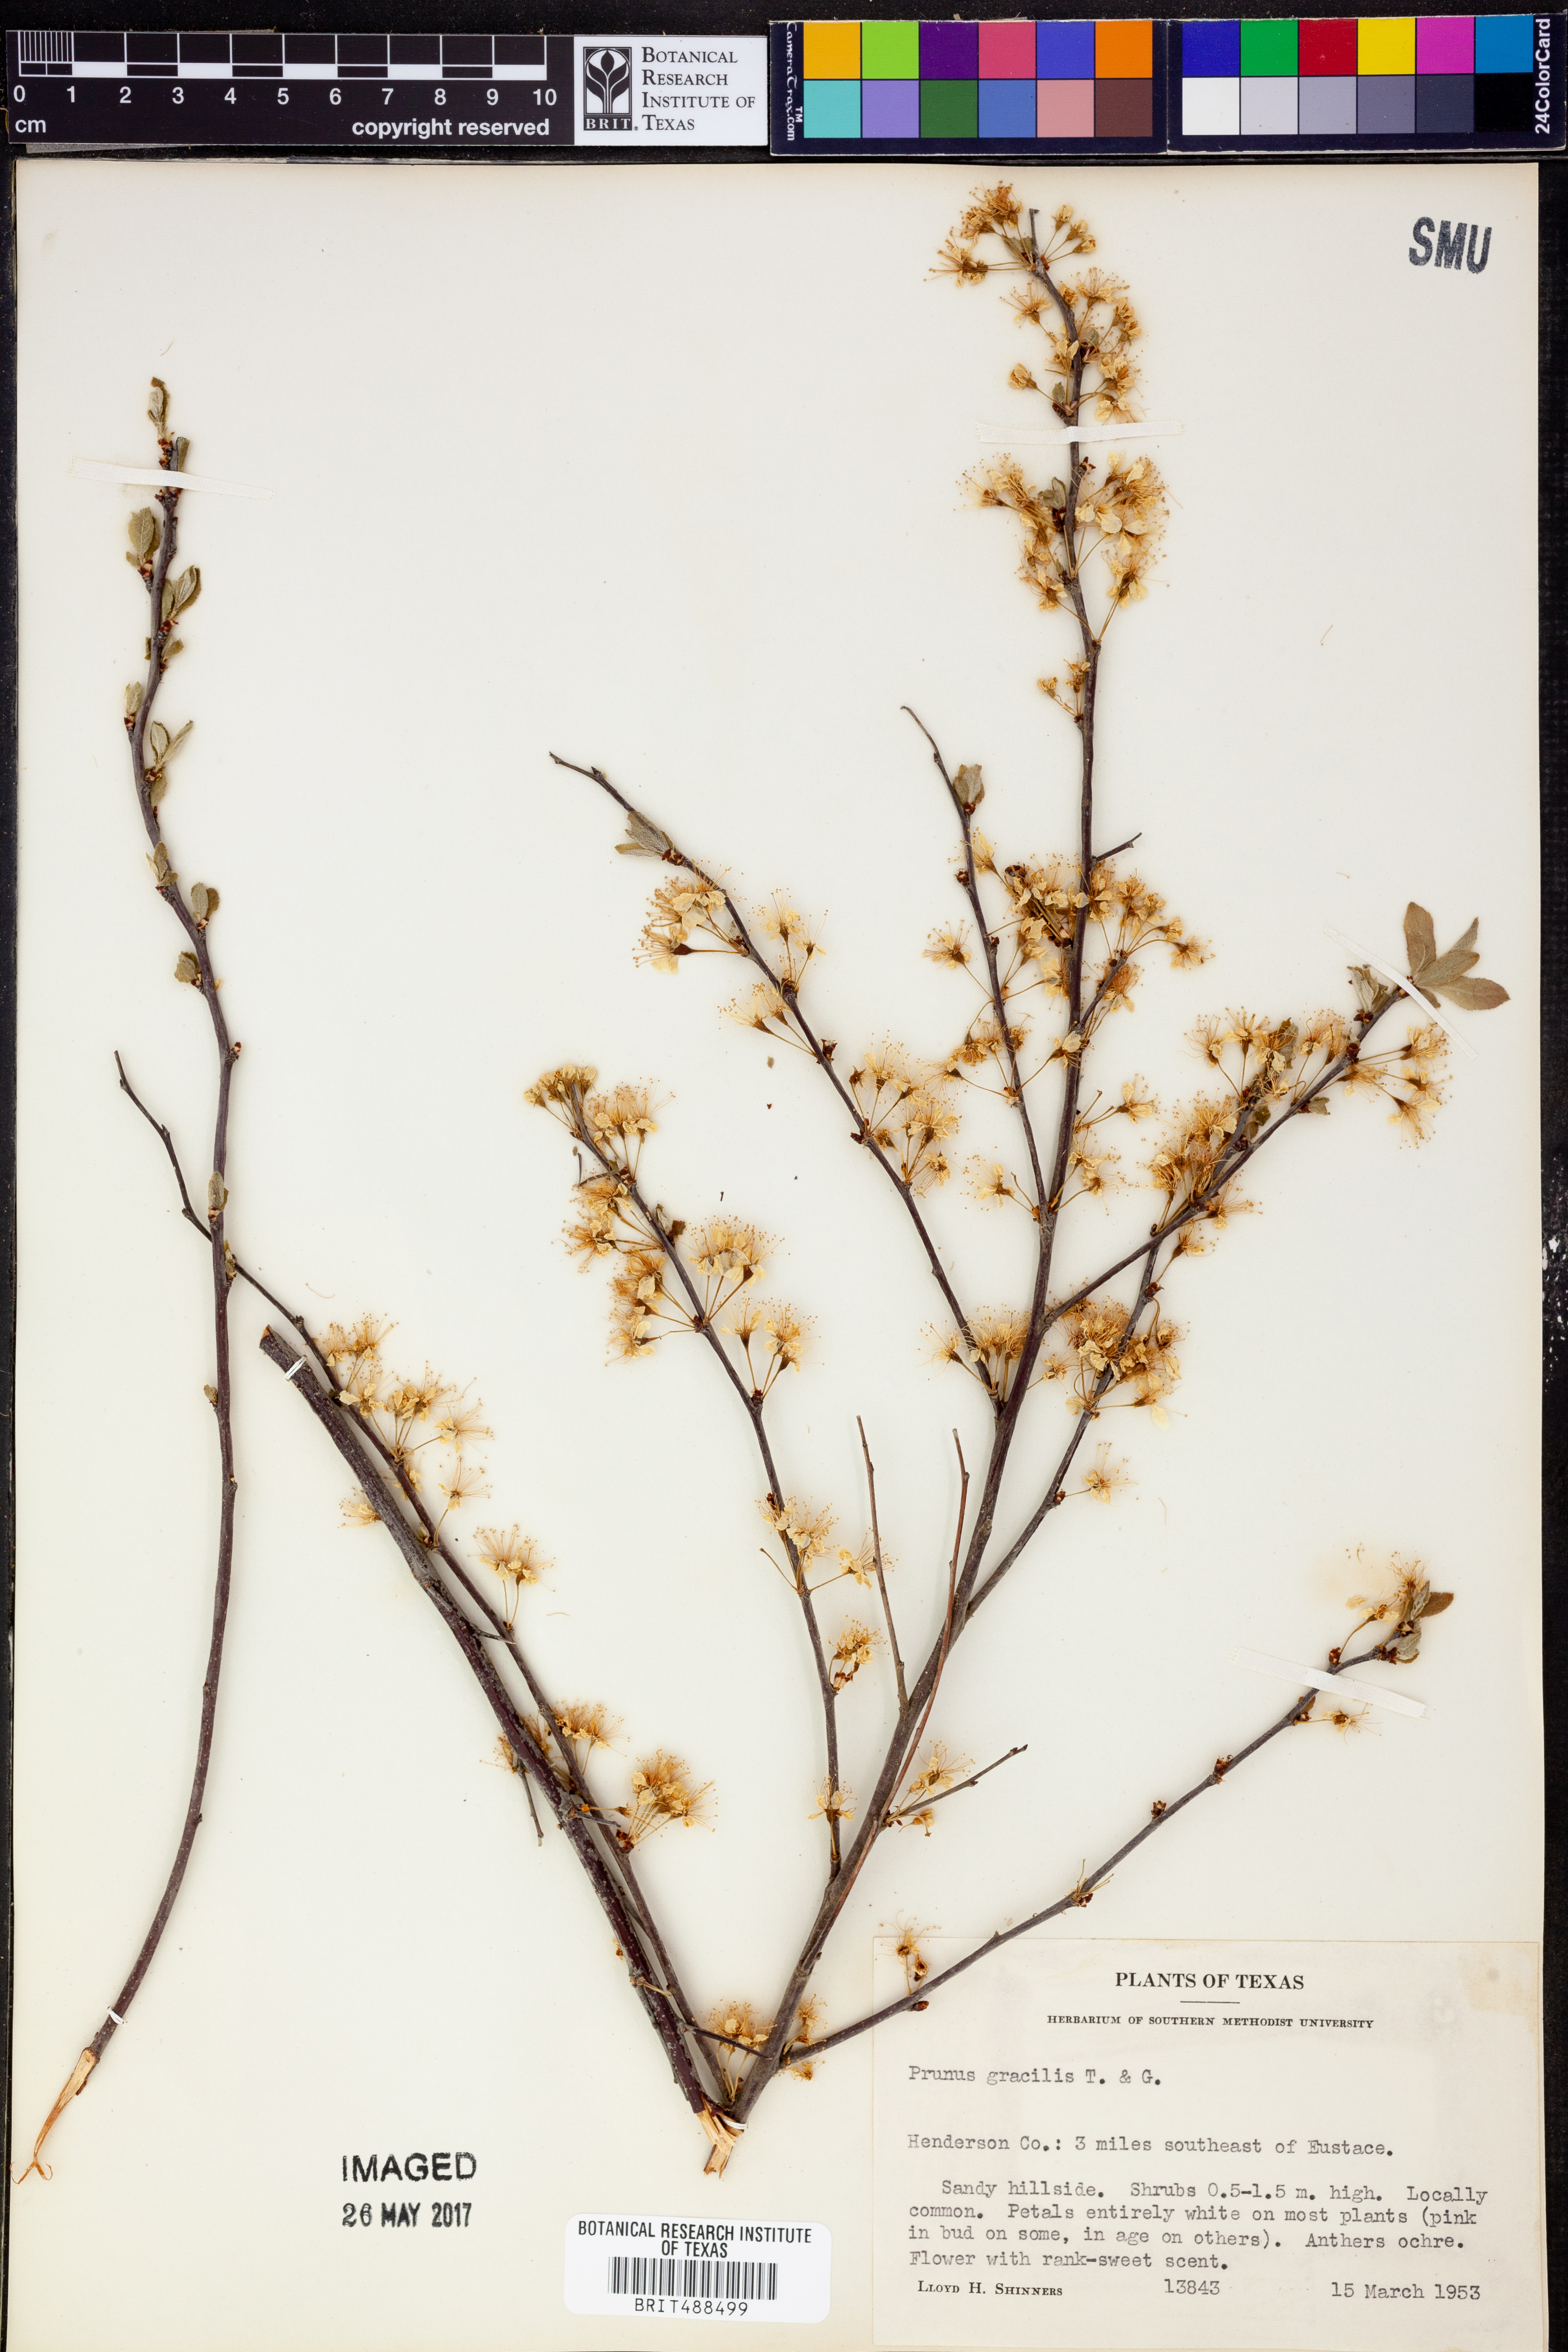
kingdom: Plantae
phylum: Tracheophyta
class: Magnoliopsida
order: Rosales
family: Rosaceae
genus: Prunus
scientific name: Prunus gracilis
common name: Oklahoma plum
